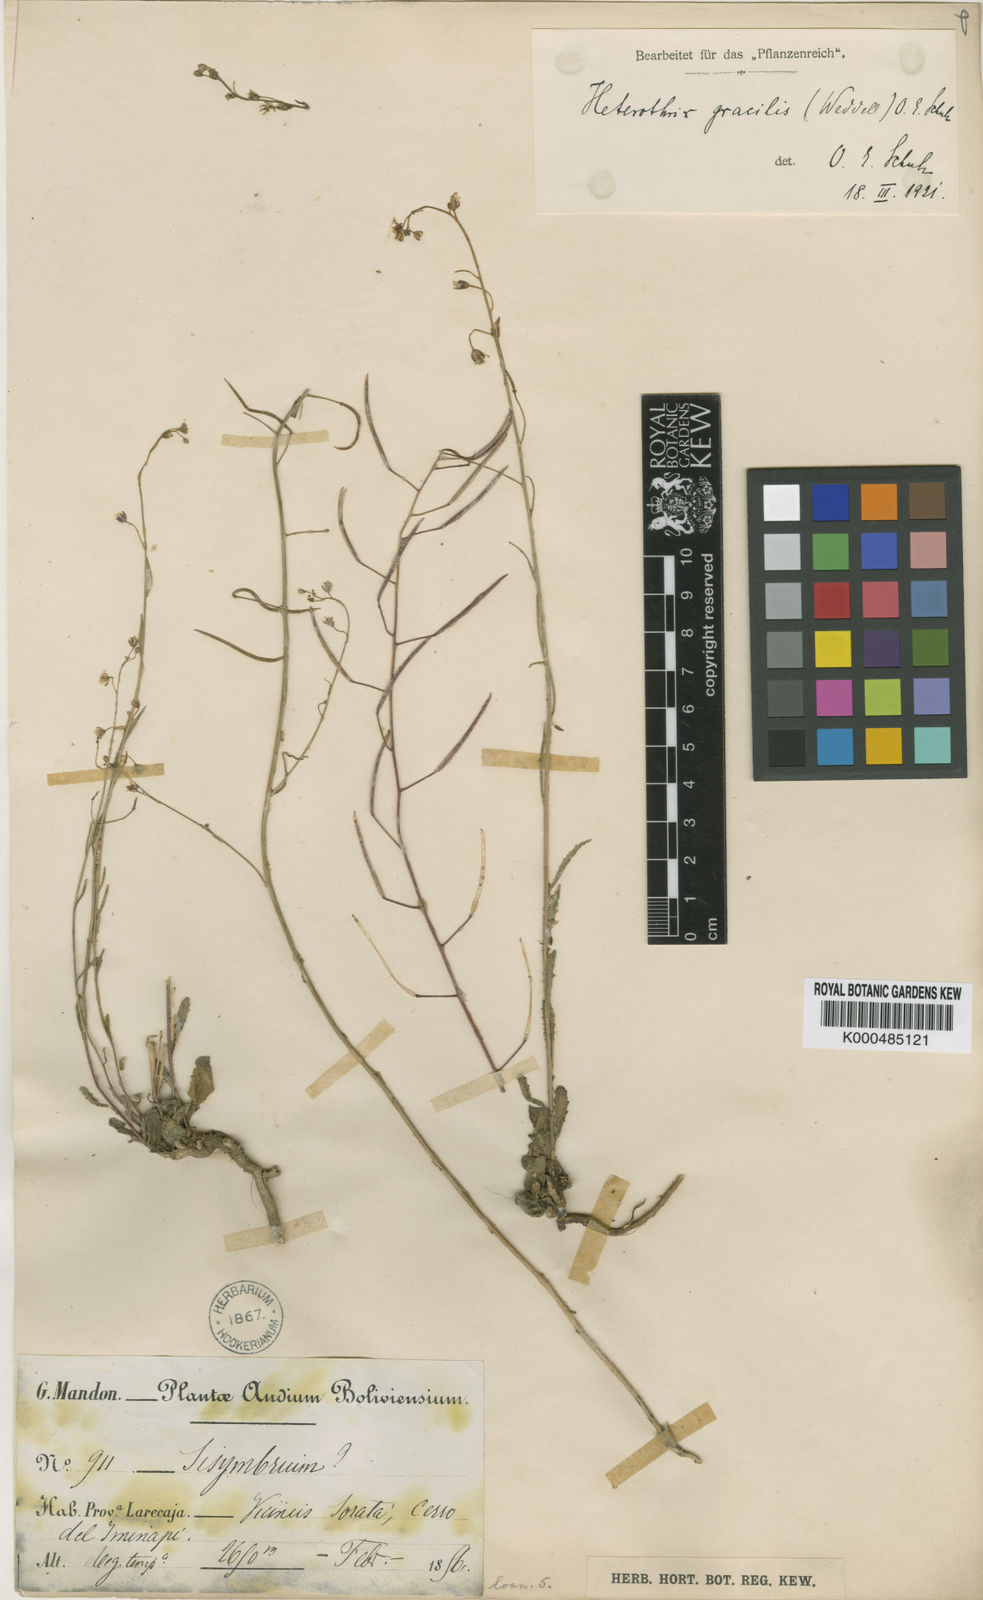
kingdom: Plantae
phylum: Tracheophyta
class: Magnoliopsida
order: Brassicales
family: Brassicaceae
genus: Mostacillastrum
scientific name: Mostacillastrum gracile
